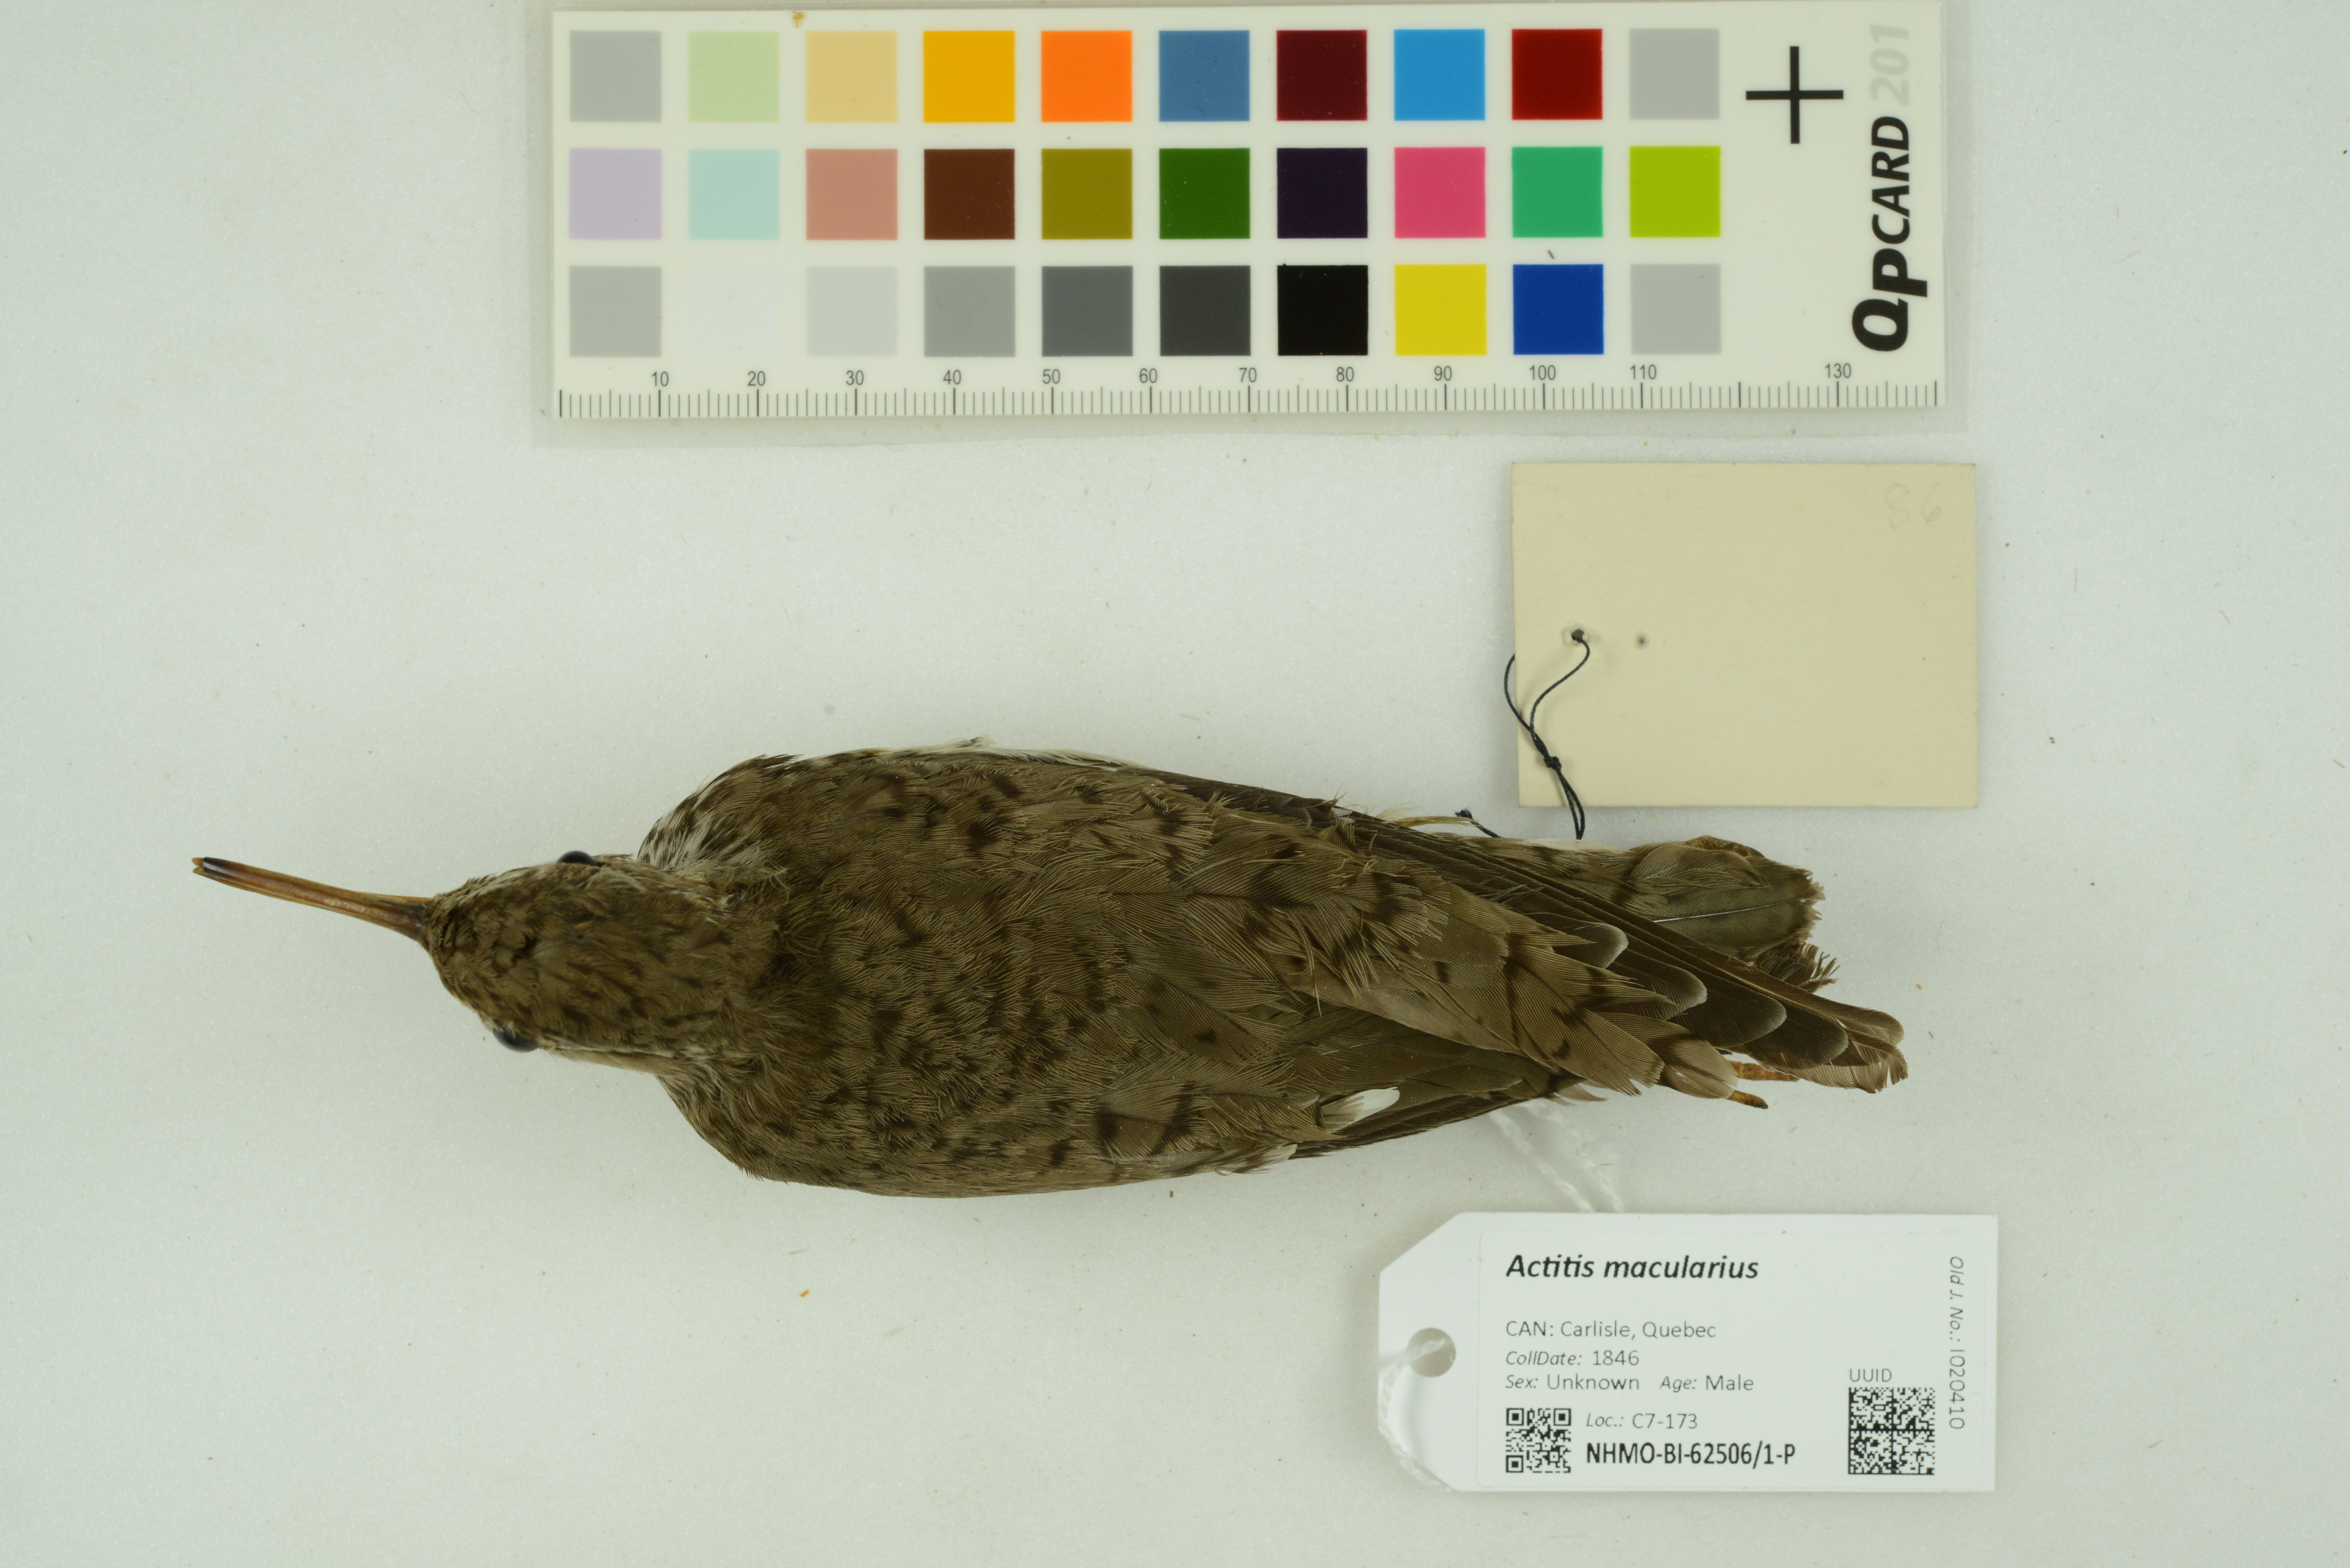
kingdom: Animalia
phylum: Chordata
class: Aves
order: Charadriiformes
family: Scolopacidae
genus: Actitis
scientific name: Actitis macularius
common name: Spotted sandpiper
